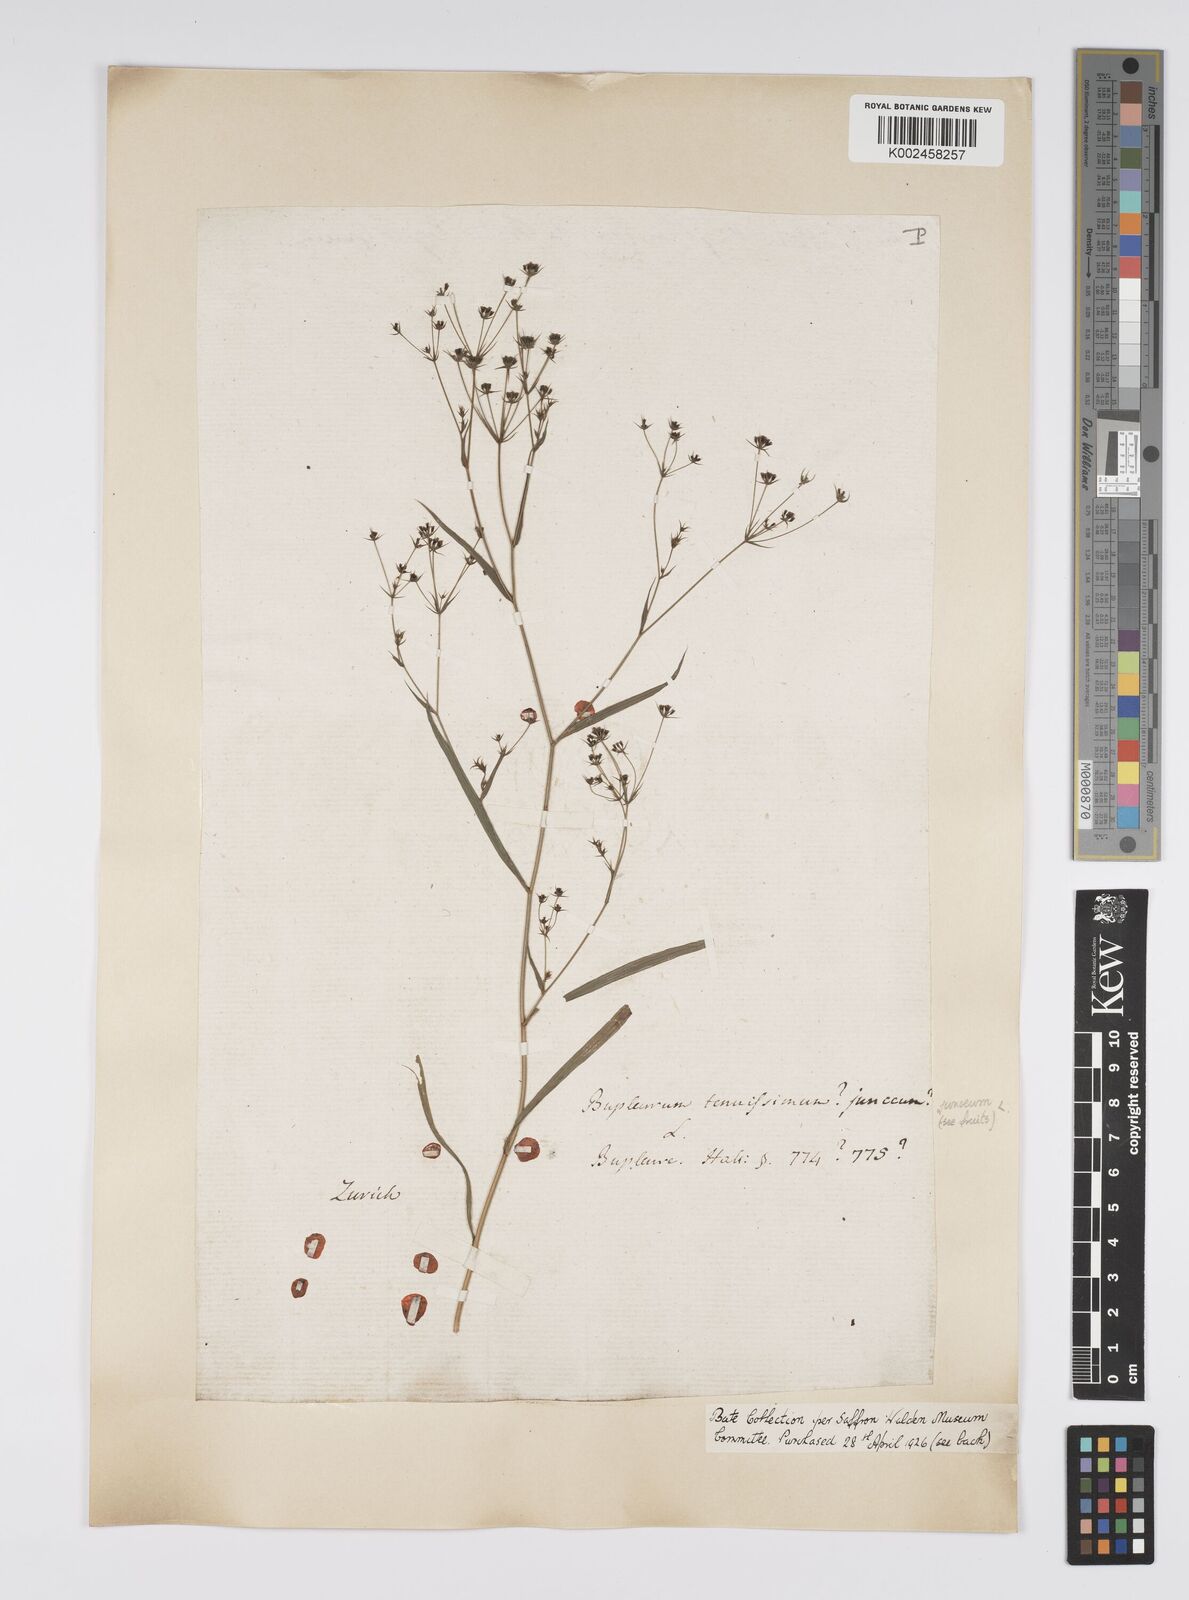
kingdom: Plantae
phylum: Tracheophyta
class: Magnoliopsida
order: Apiales
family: Apiaceae
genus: Bupleurum
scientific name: Bupleurum praealtum
